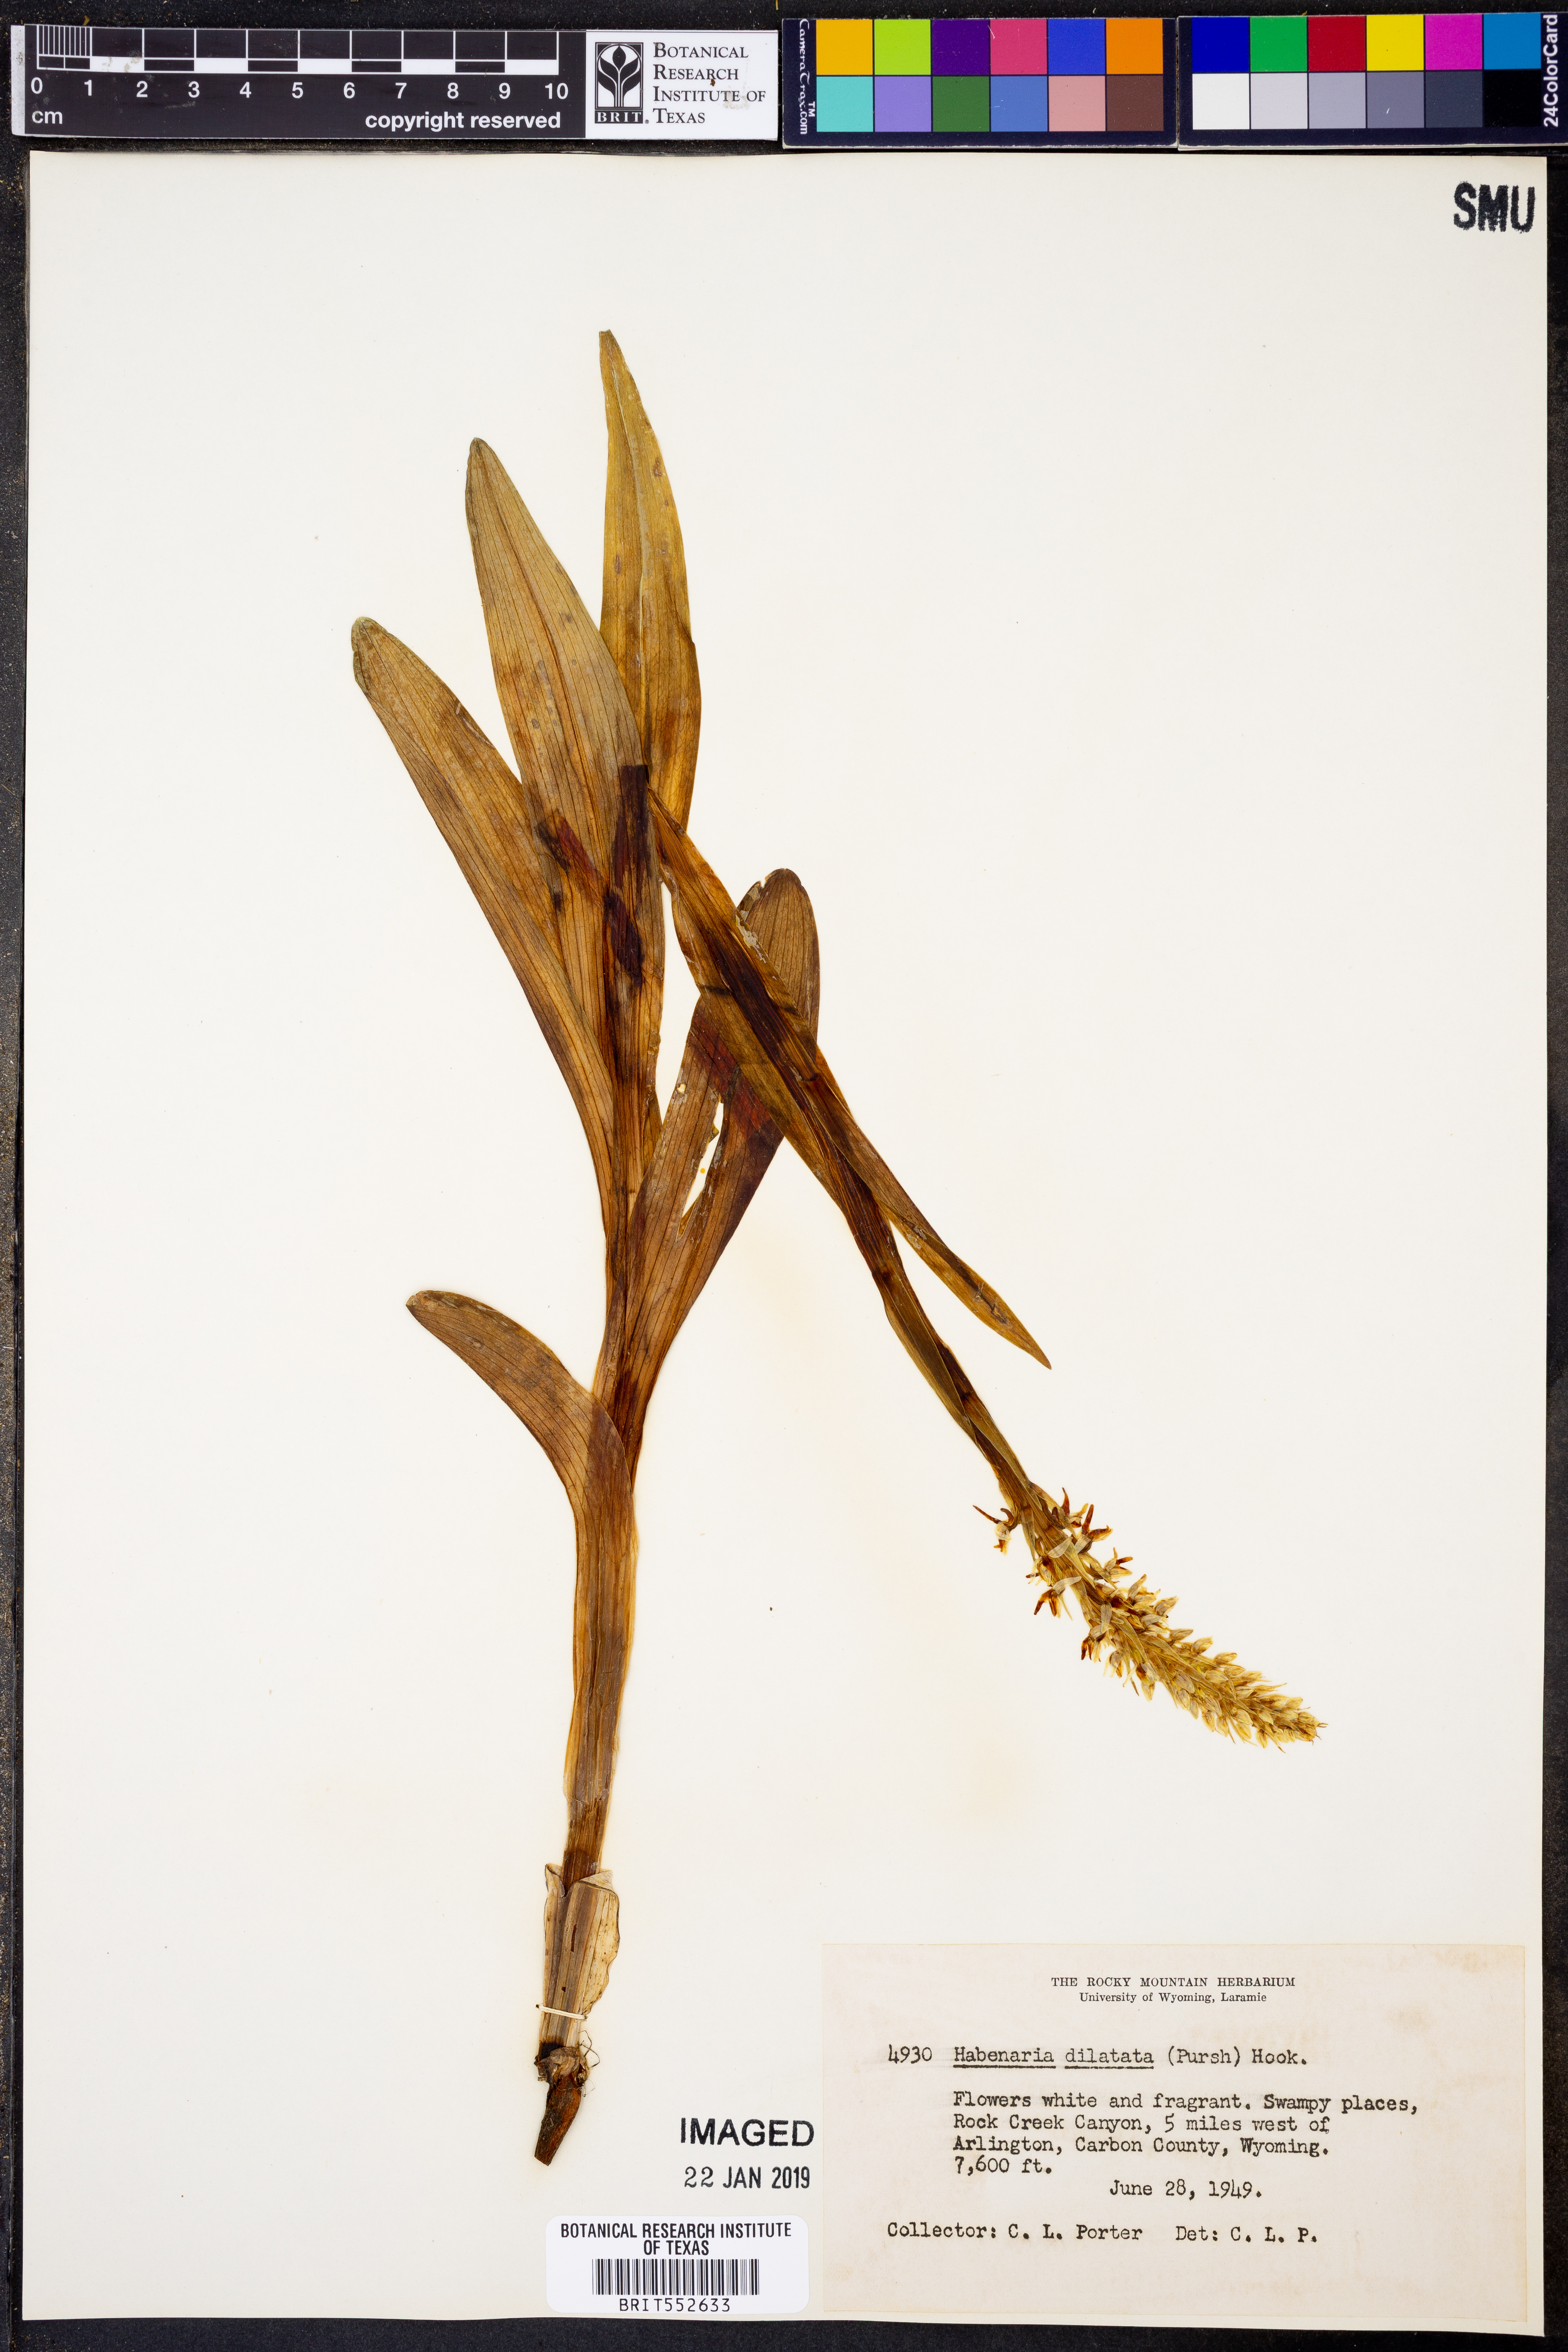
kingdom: Plantae
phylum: Tracheophyta
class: Liliopsida
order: Asparagales
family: Orchidaceae
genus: Platanthera
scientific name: Platanthera dilatata
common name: Bog candles
